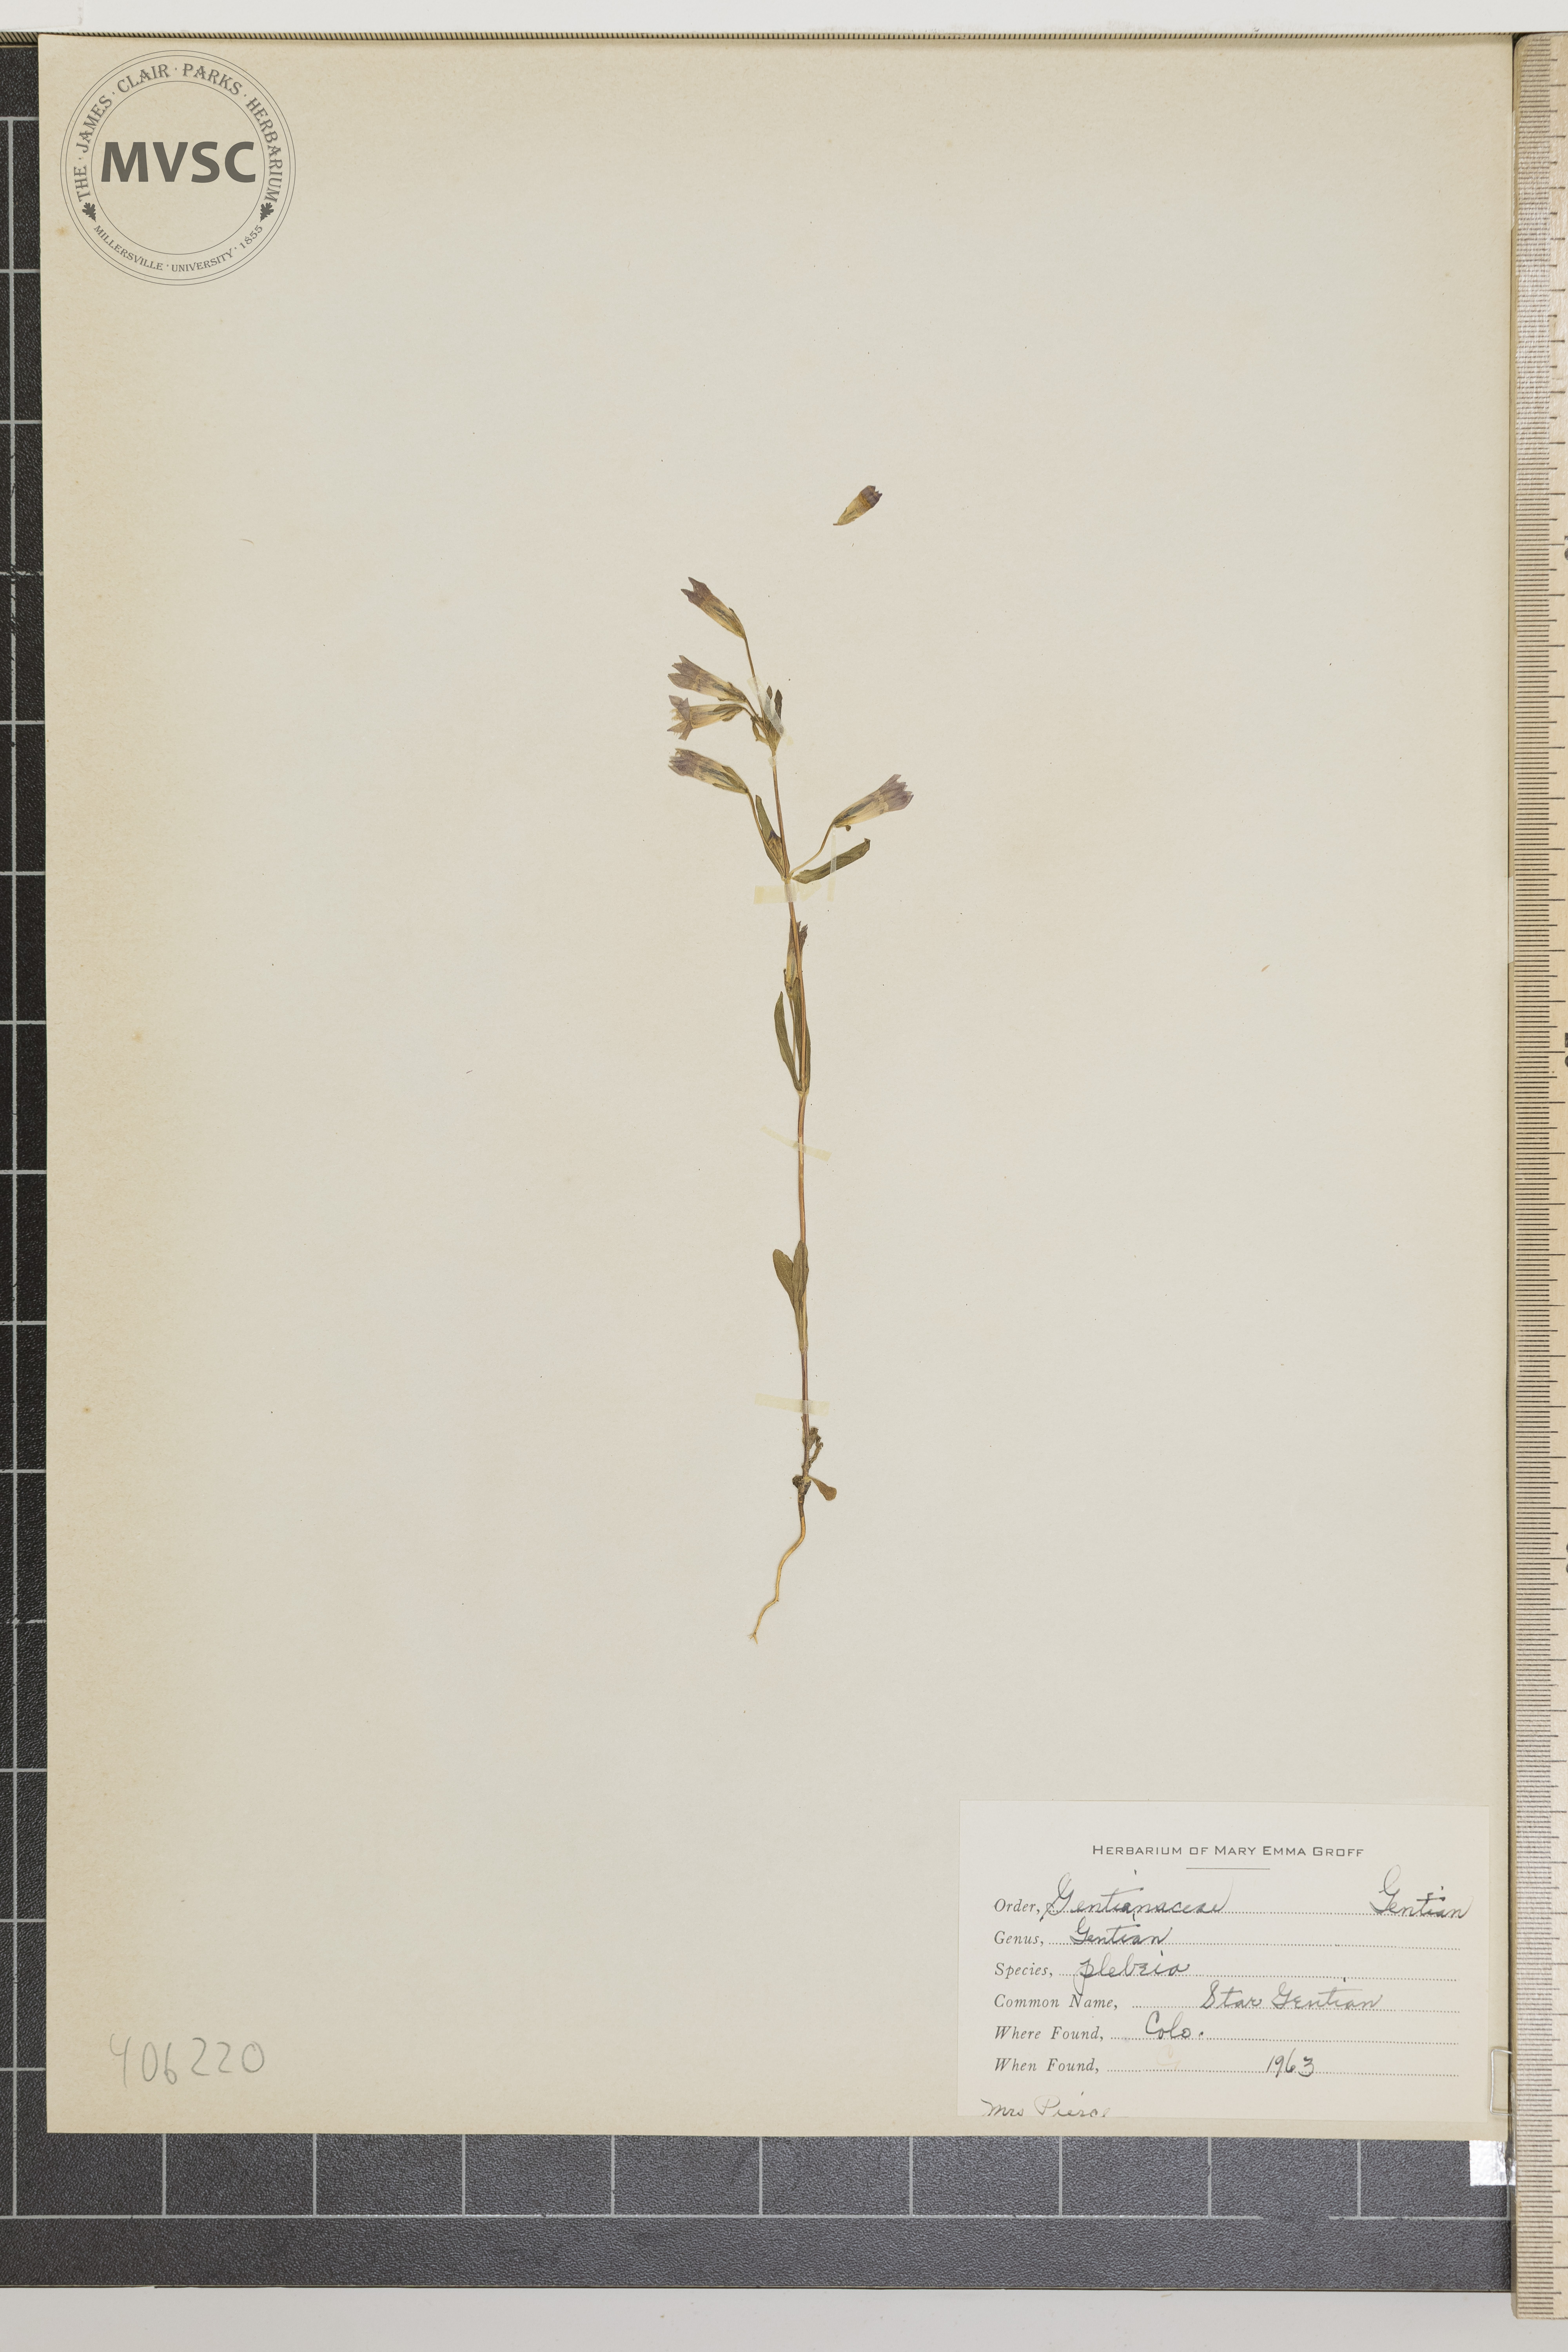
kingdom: Plantae
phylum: Tracheophyta
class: Magnoliopsida
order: Gentianales
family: Gentianaceae
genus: Gentianella
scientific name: Gentianella amarella
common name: Star Gentian
